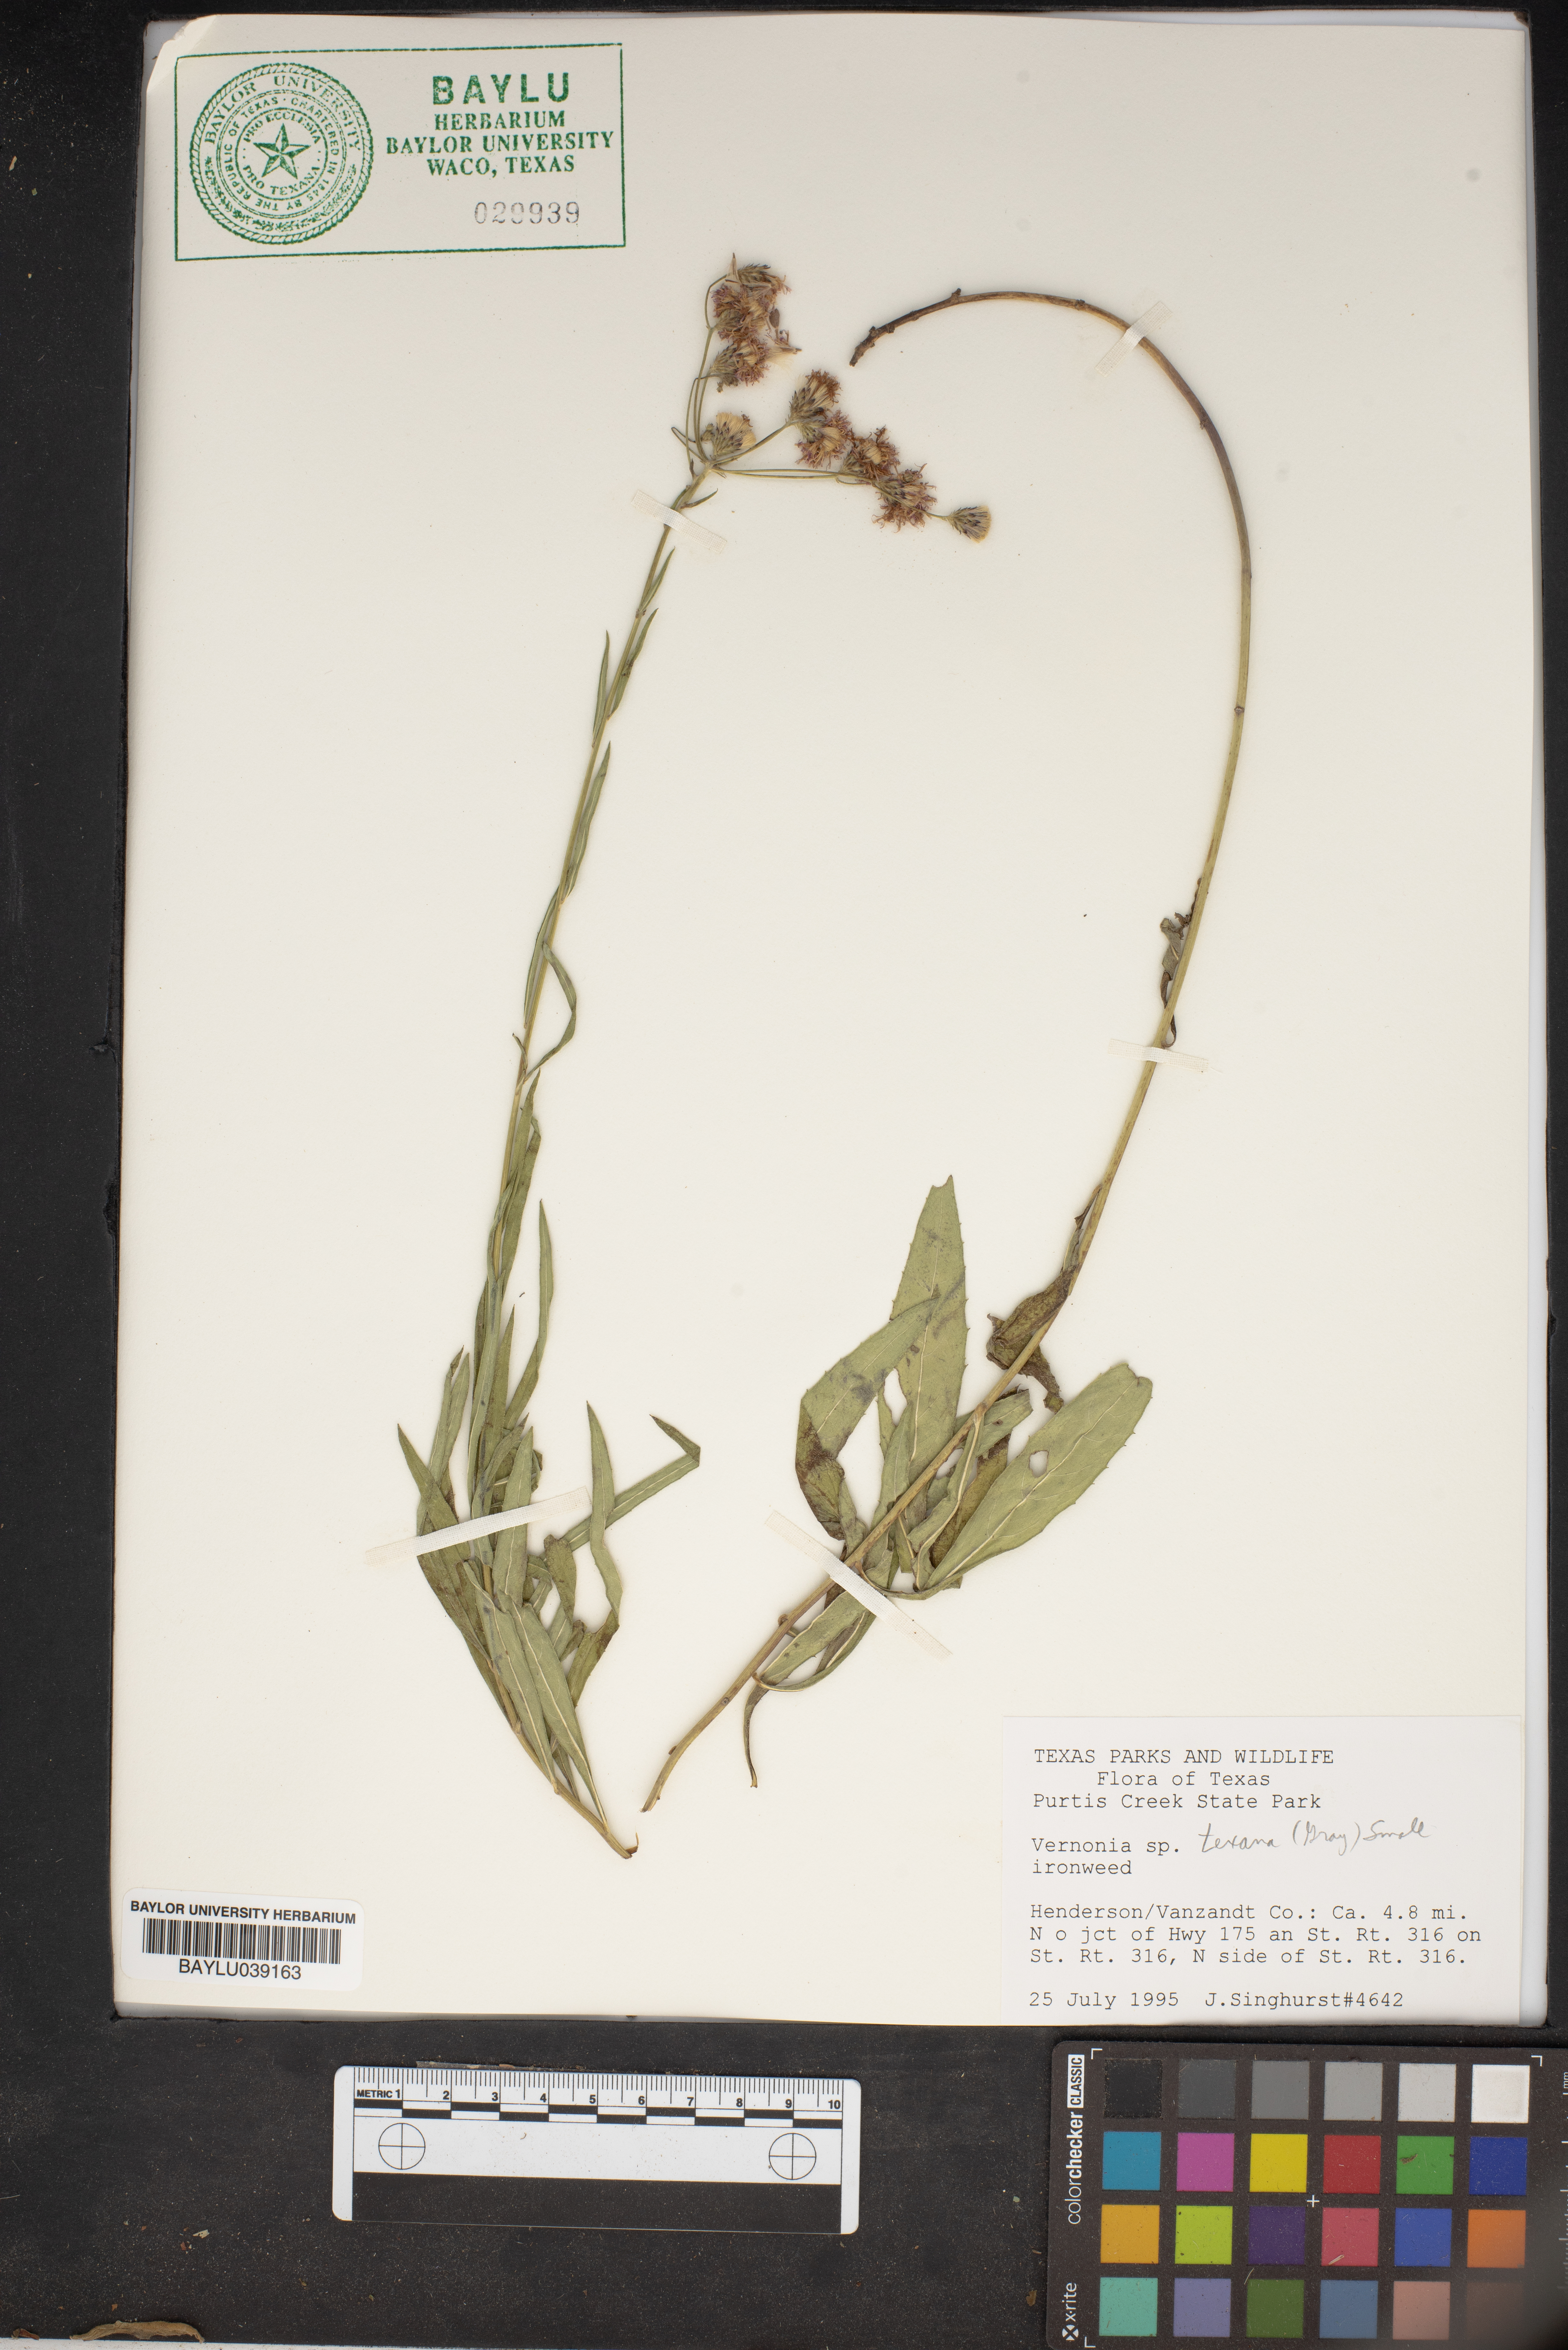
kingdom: Plantae
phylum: Tracheophyta
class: Magnoliopsida
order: Asterales
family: Asteraceae
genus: Vernonia
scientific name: Vernonia texana
